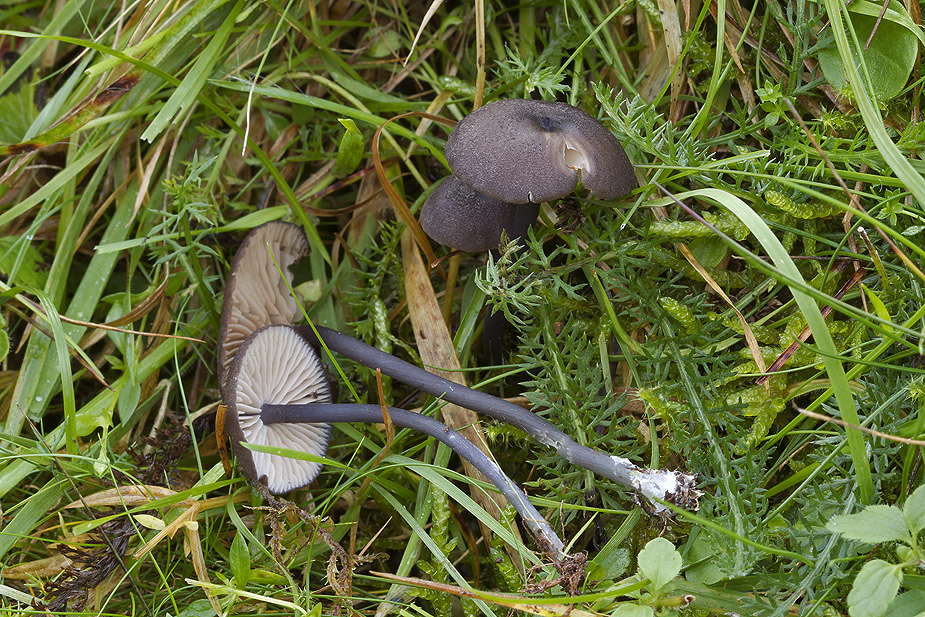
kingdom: Fungi
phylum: Basidiomycota
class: Agaricomycetes
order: Agaricales
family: Entolomataceae
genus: Entoloma
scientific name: Entoloma
